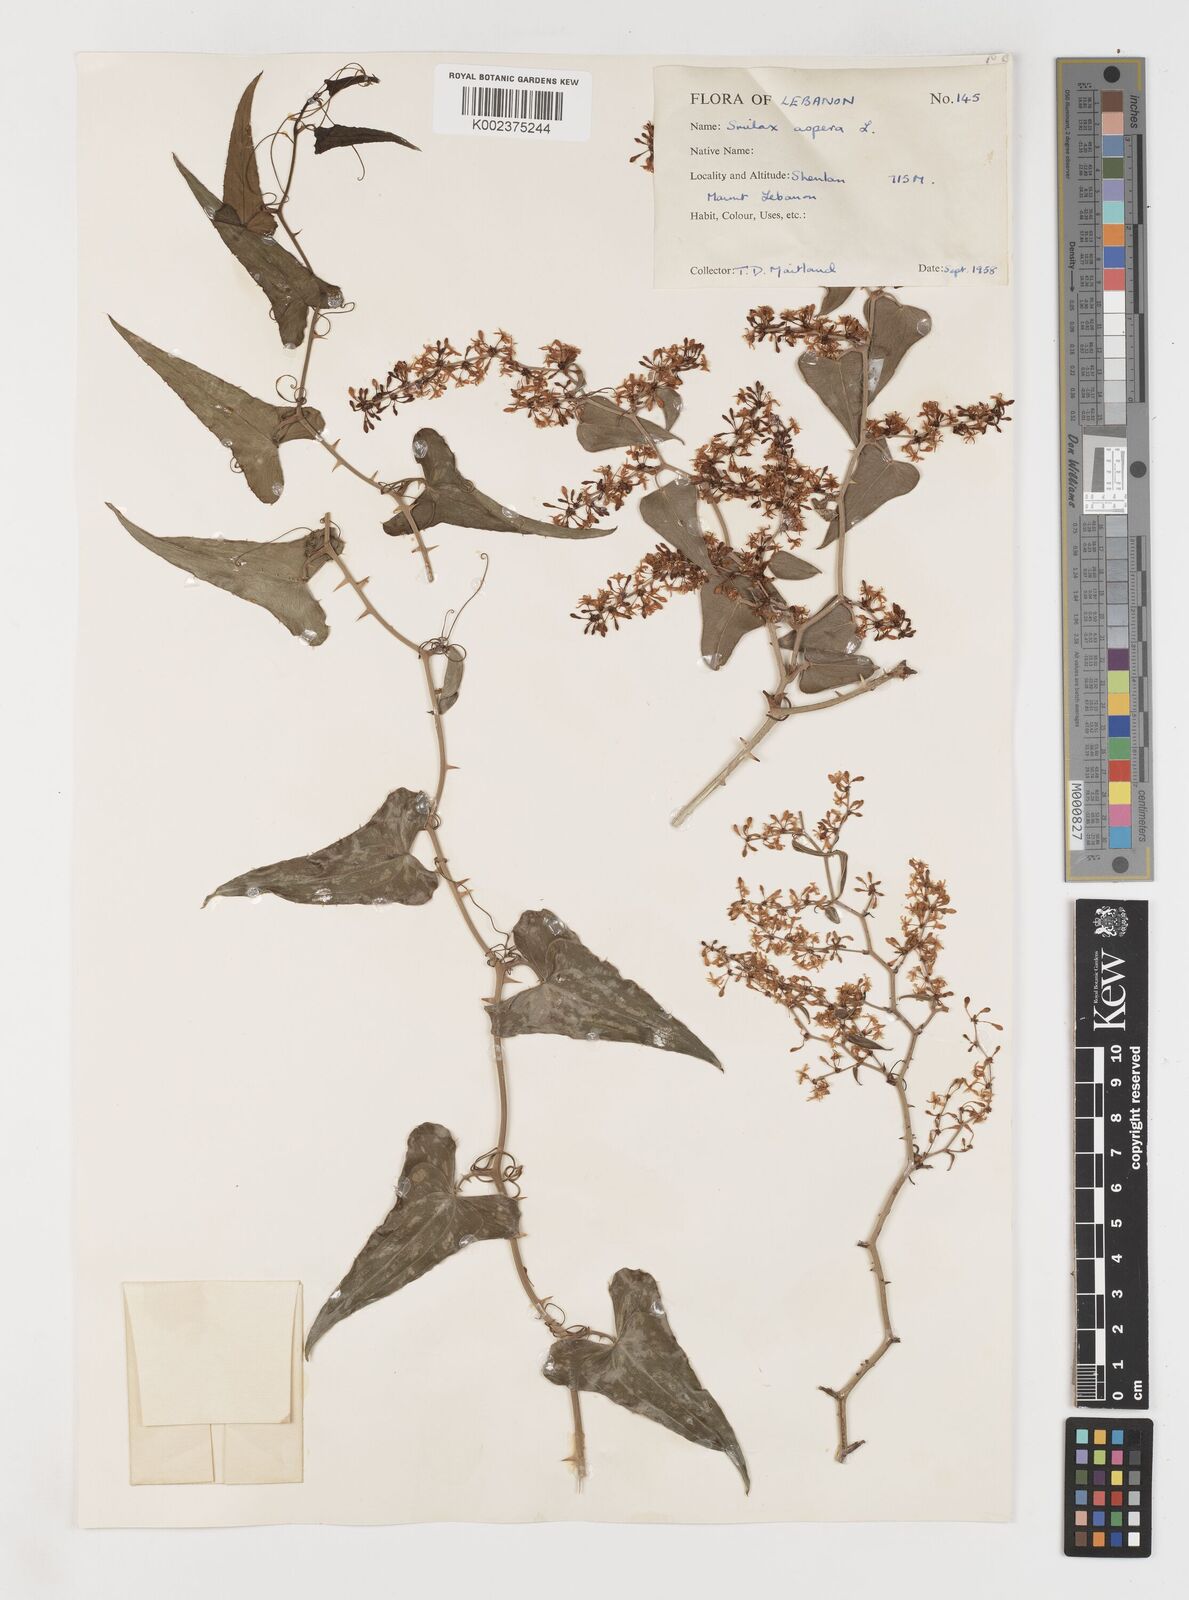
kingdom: Plantae
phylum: Tracheophyta
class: Liliopsida
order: Liliales
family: Smilacaceae
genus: Smilax
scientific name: Smilax aspera
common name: Common smilax
